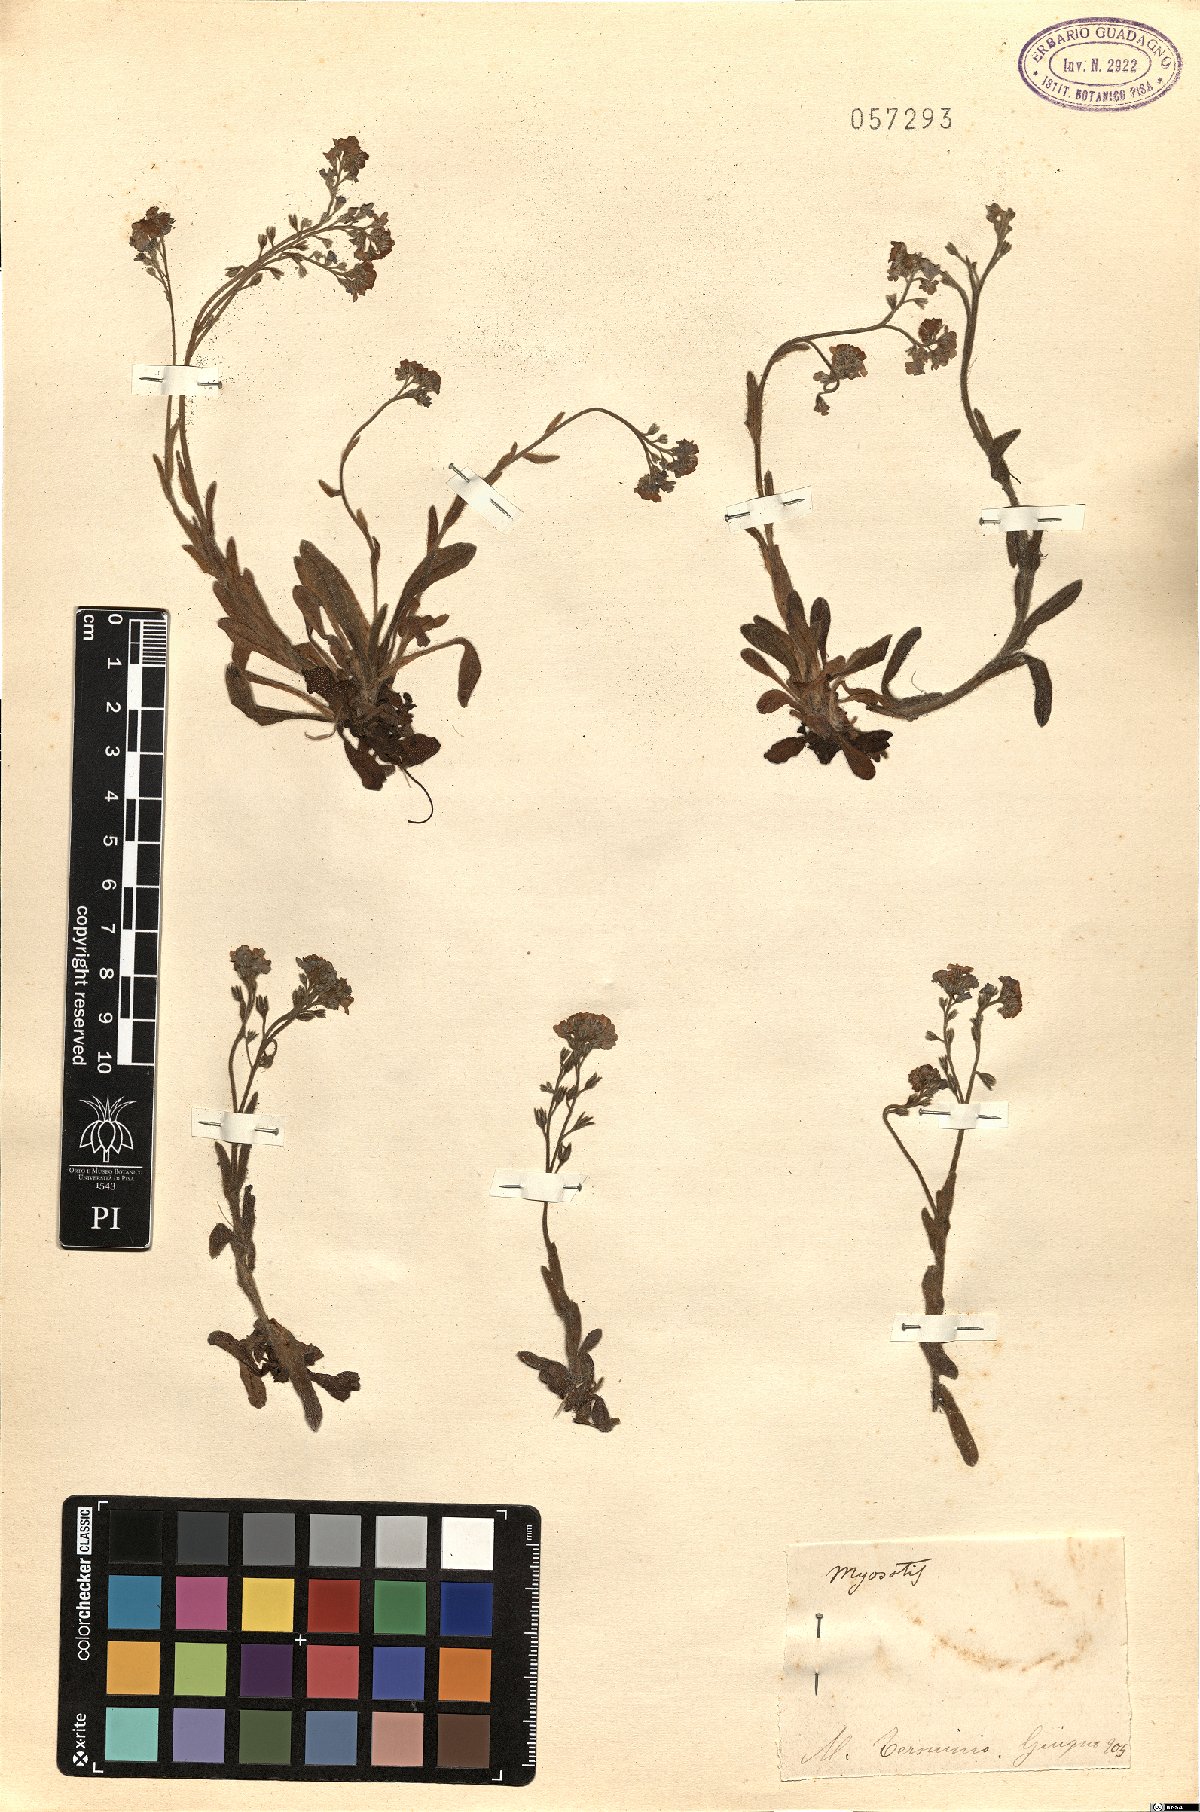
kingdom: Plantae
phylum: Tracheophyta
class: Magnoliopsida
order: Boraginales
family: Boraginaceae
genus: Myosotis
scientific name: Myosotis
